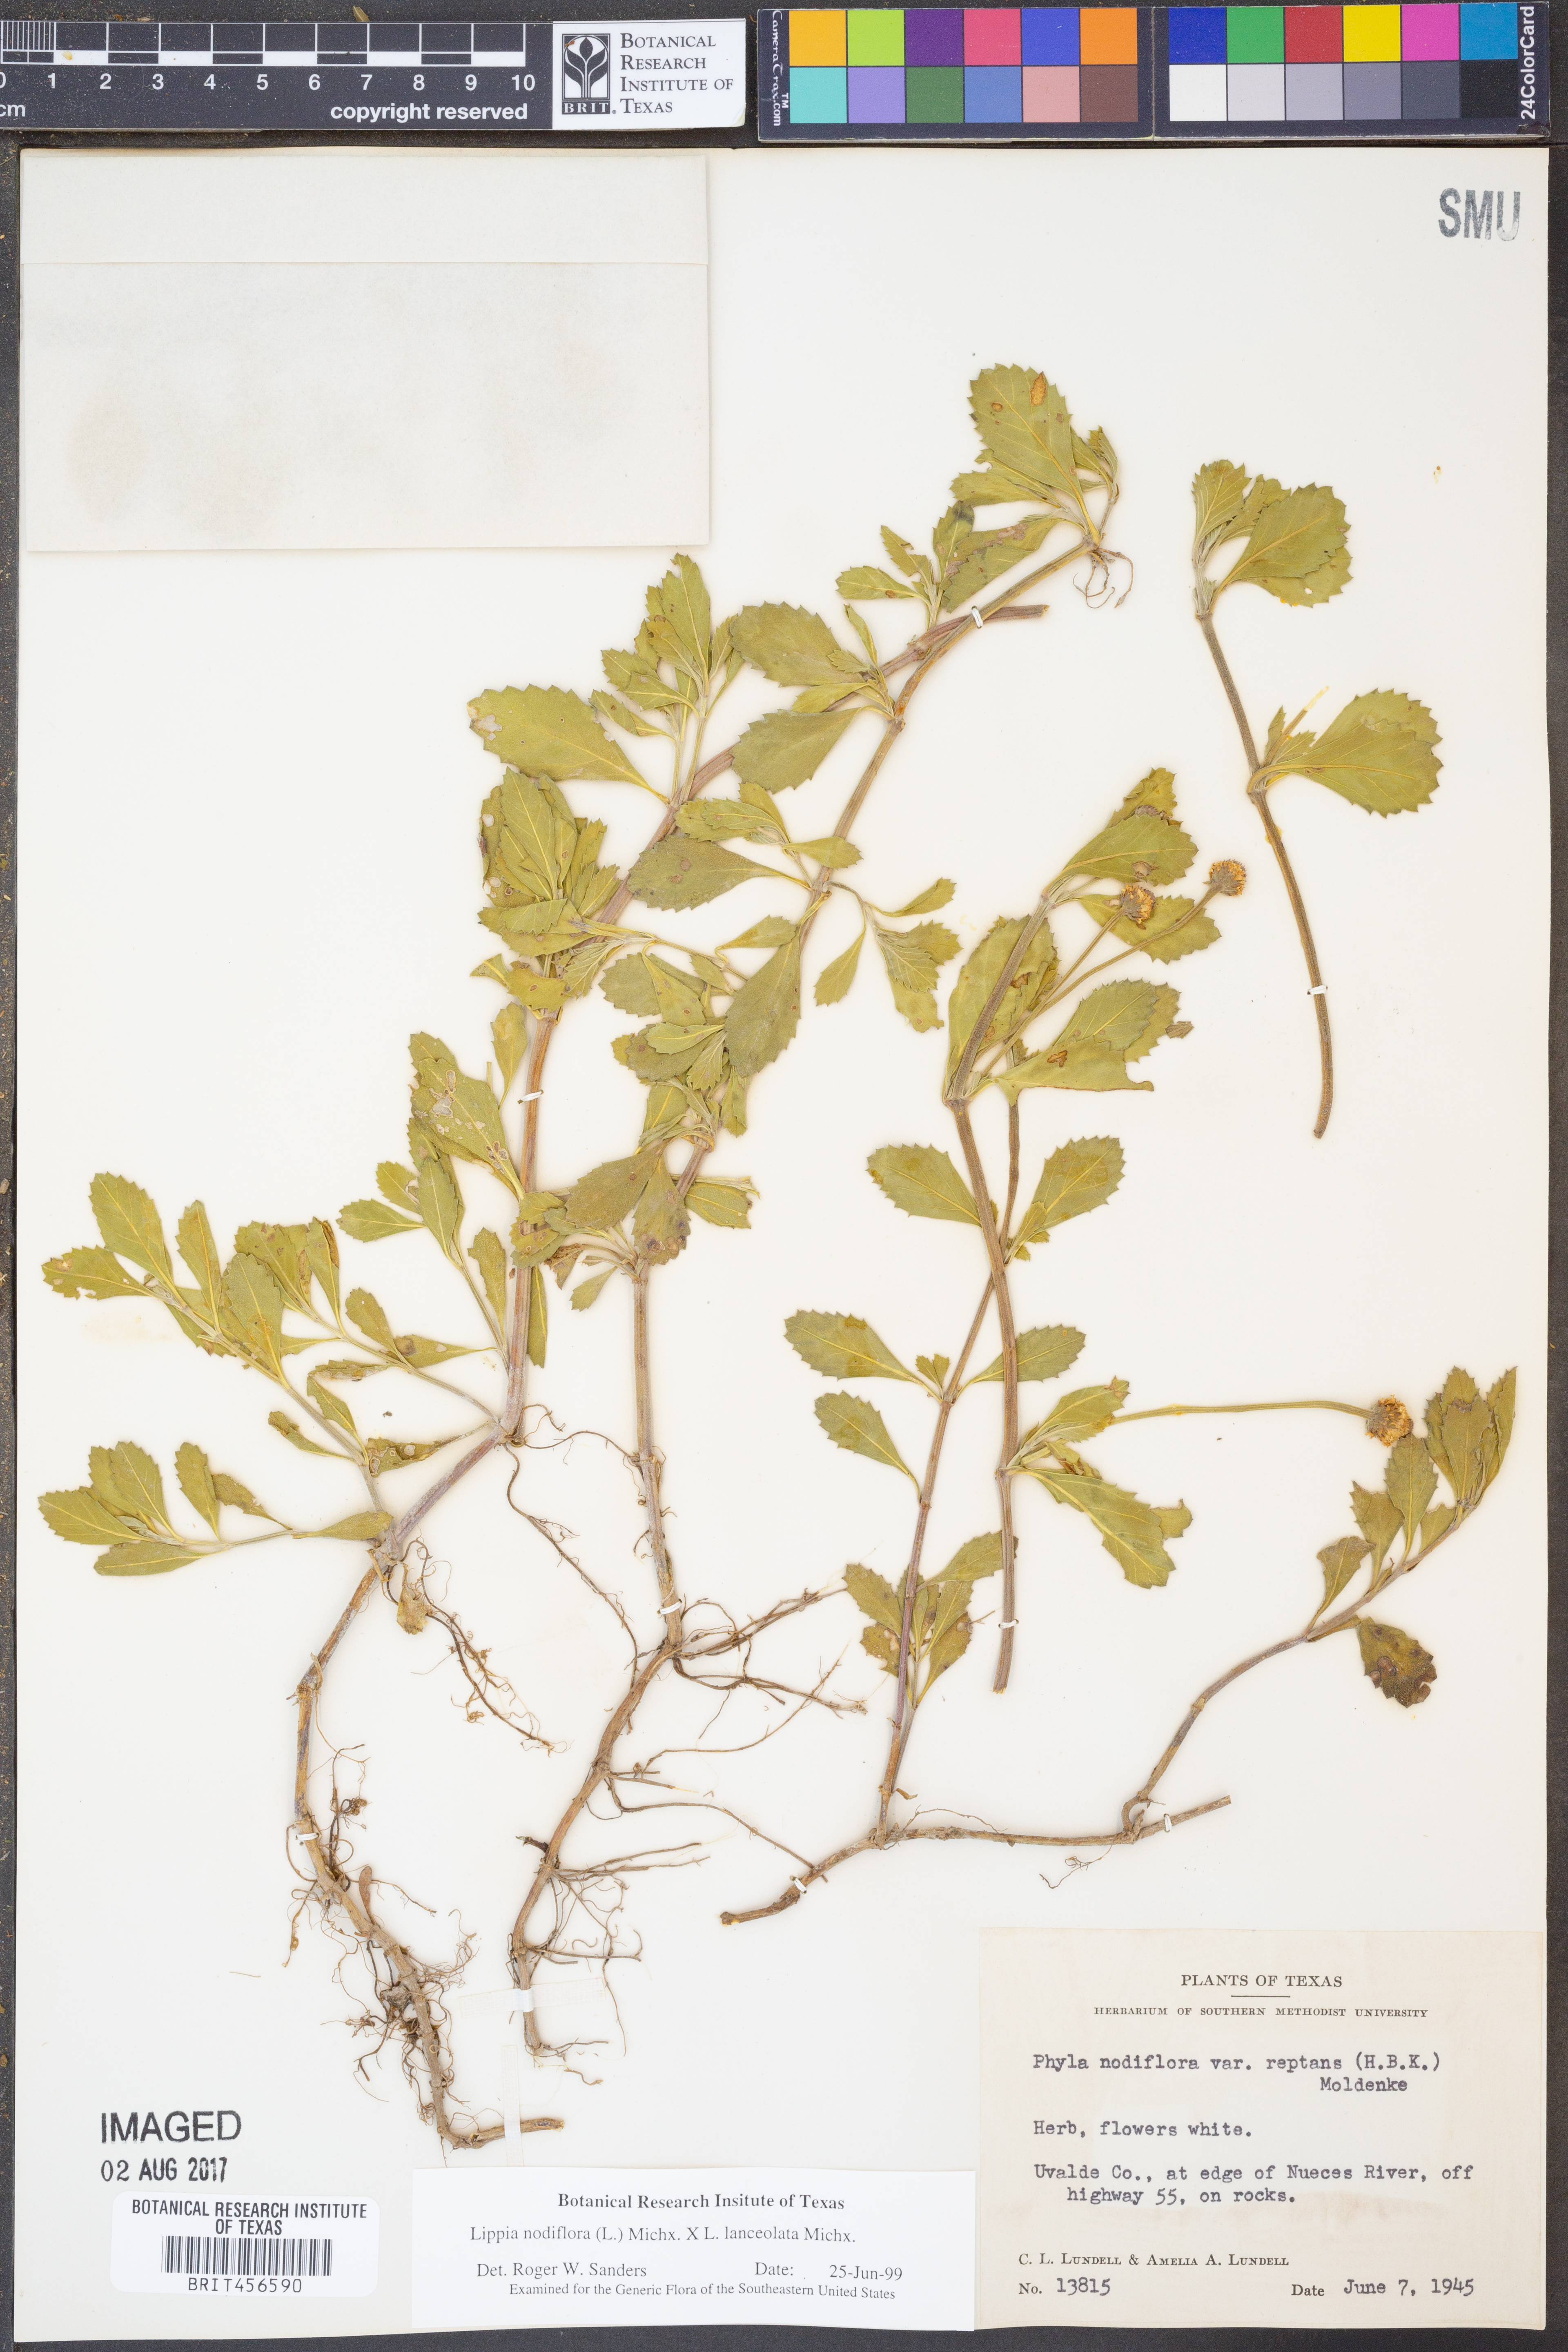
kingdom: Plantae
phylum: Tracheophyta
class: Magnoliopsida
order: Lamiales
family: Verbenaceae
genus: Phyla
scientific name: Phyla nodiflora
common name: Frogfruit
